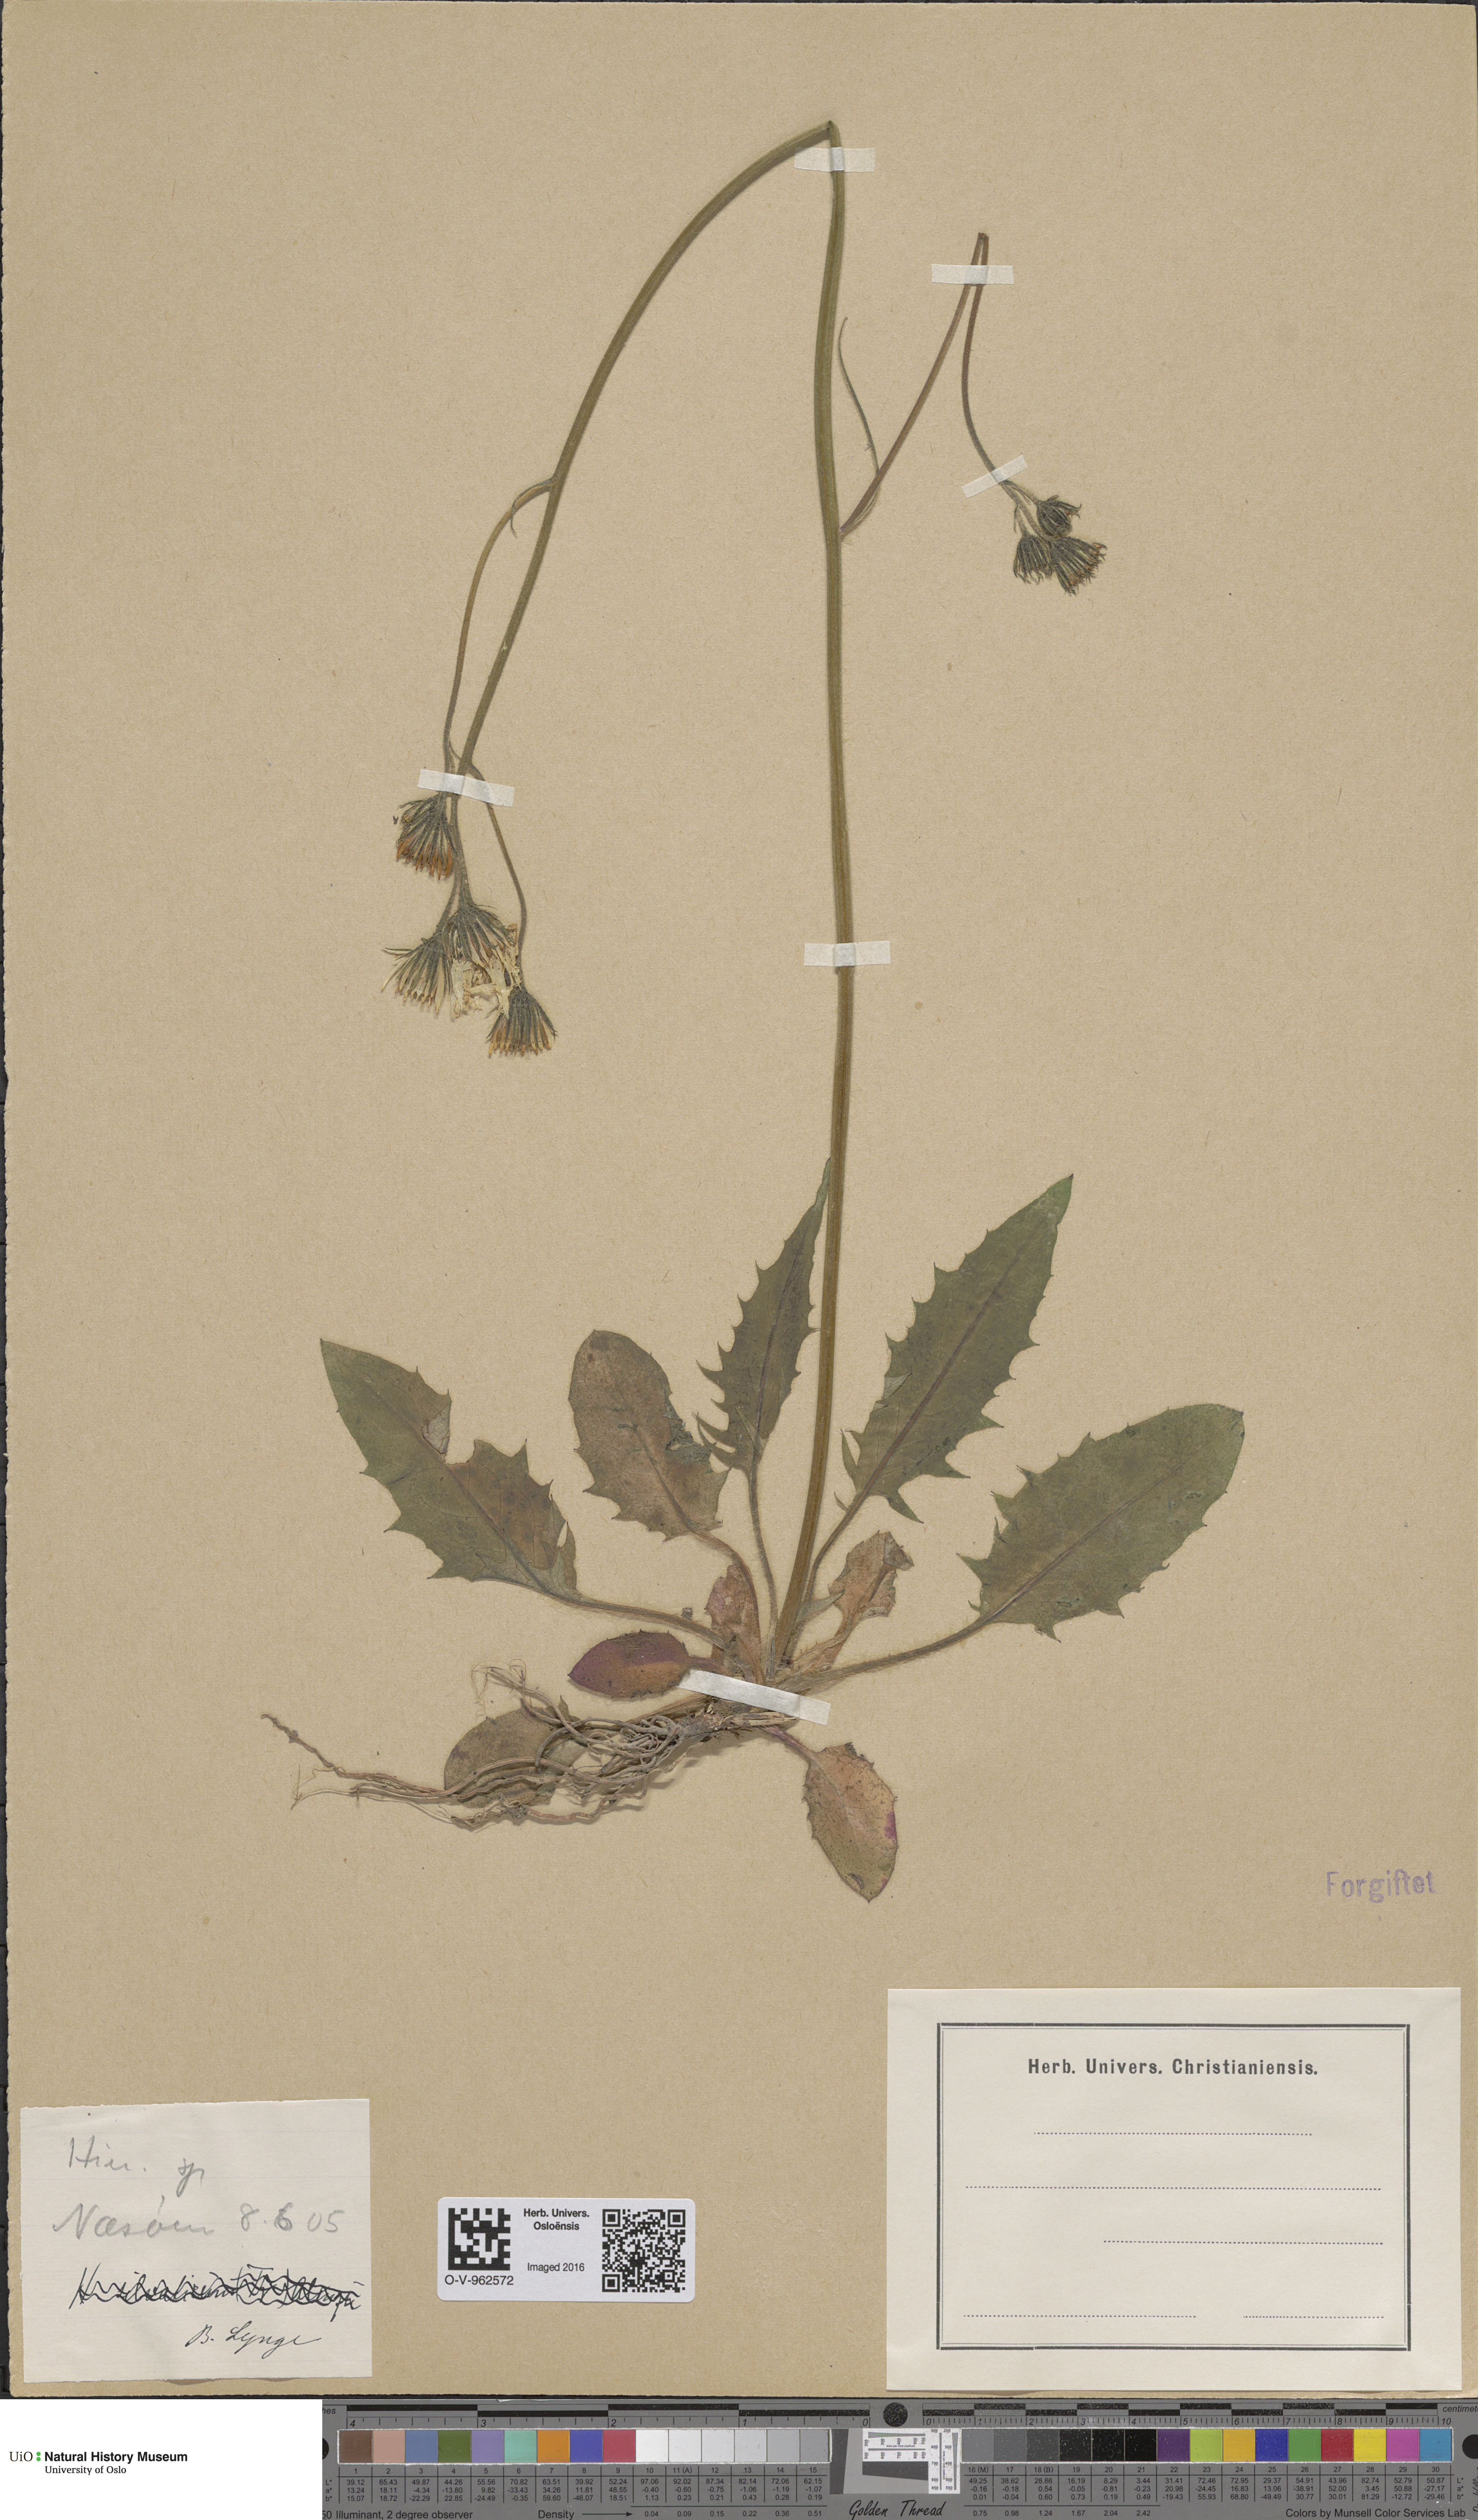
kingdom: Plantae
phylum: Tracheophyta
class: Magnoliopsida
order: Asterales
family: Asteraceae
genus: Hieracium
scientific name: Hieracium
